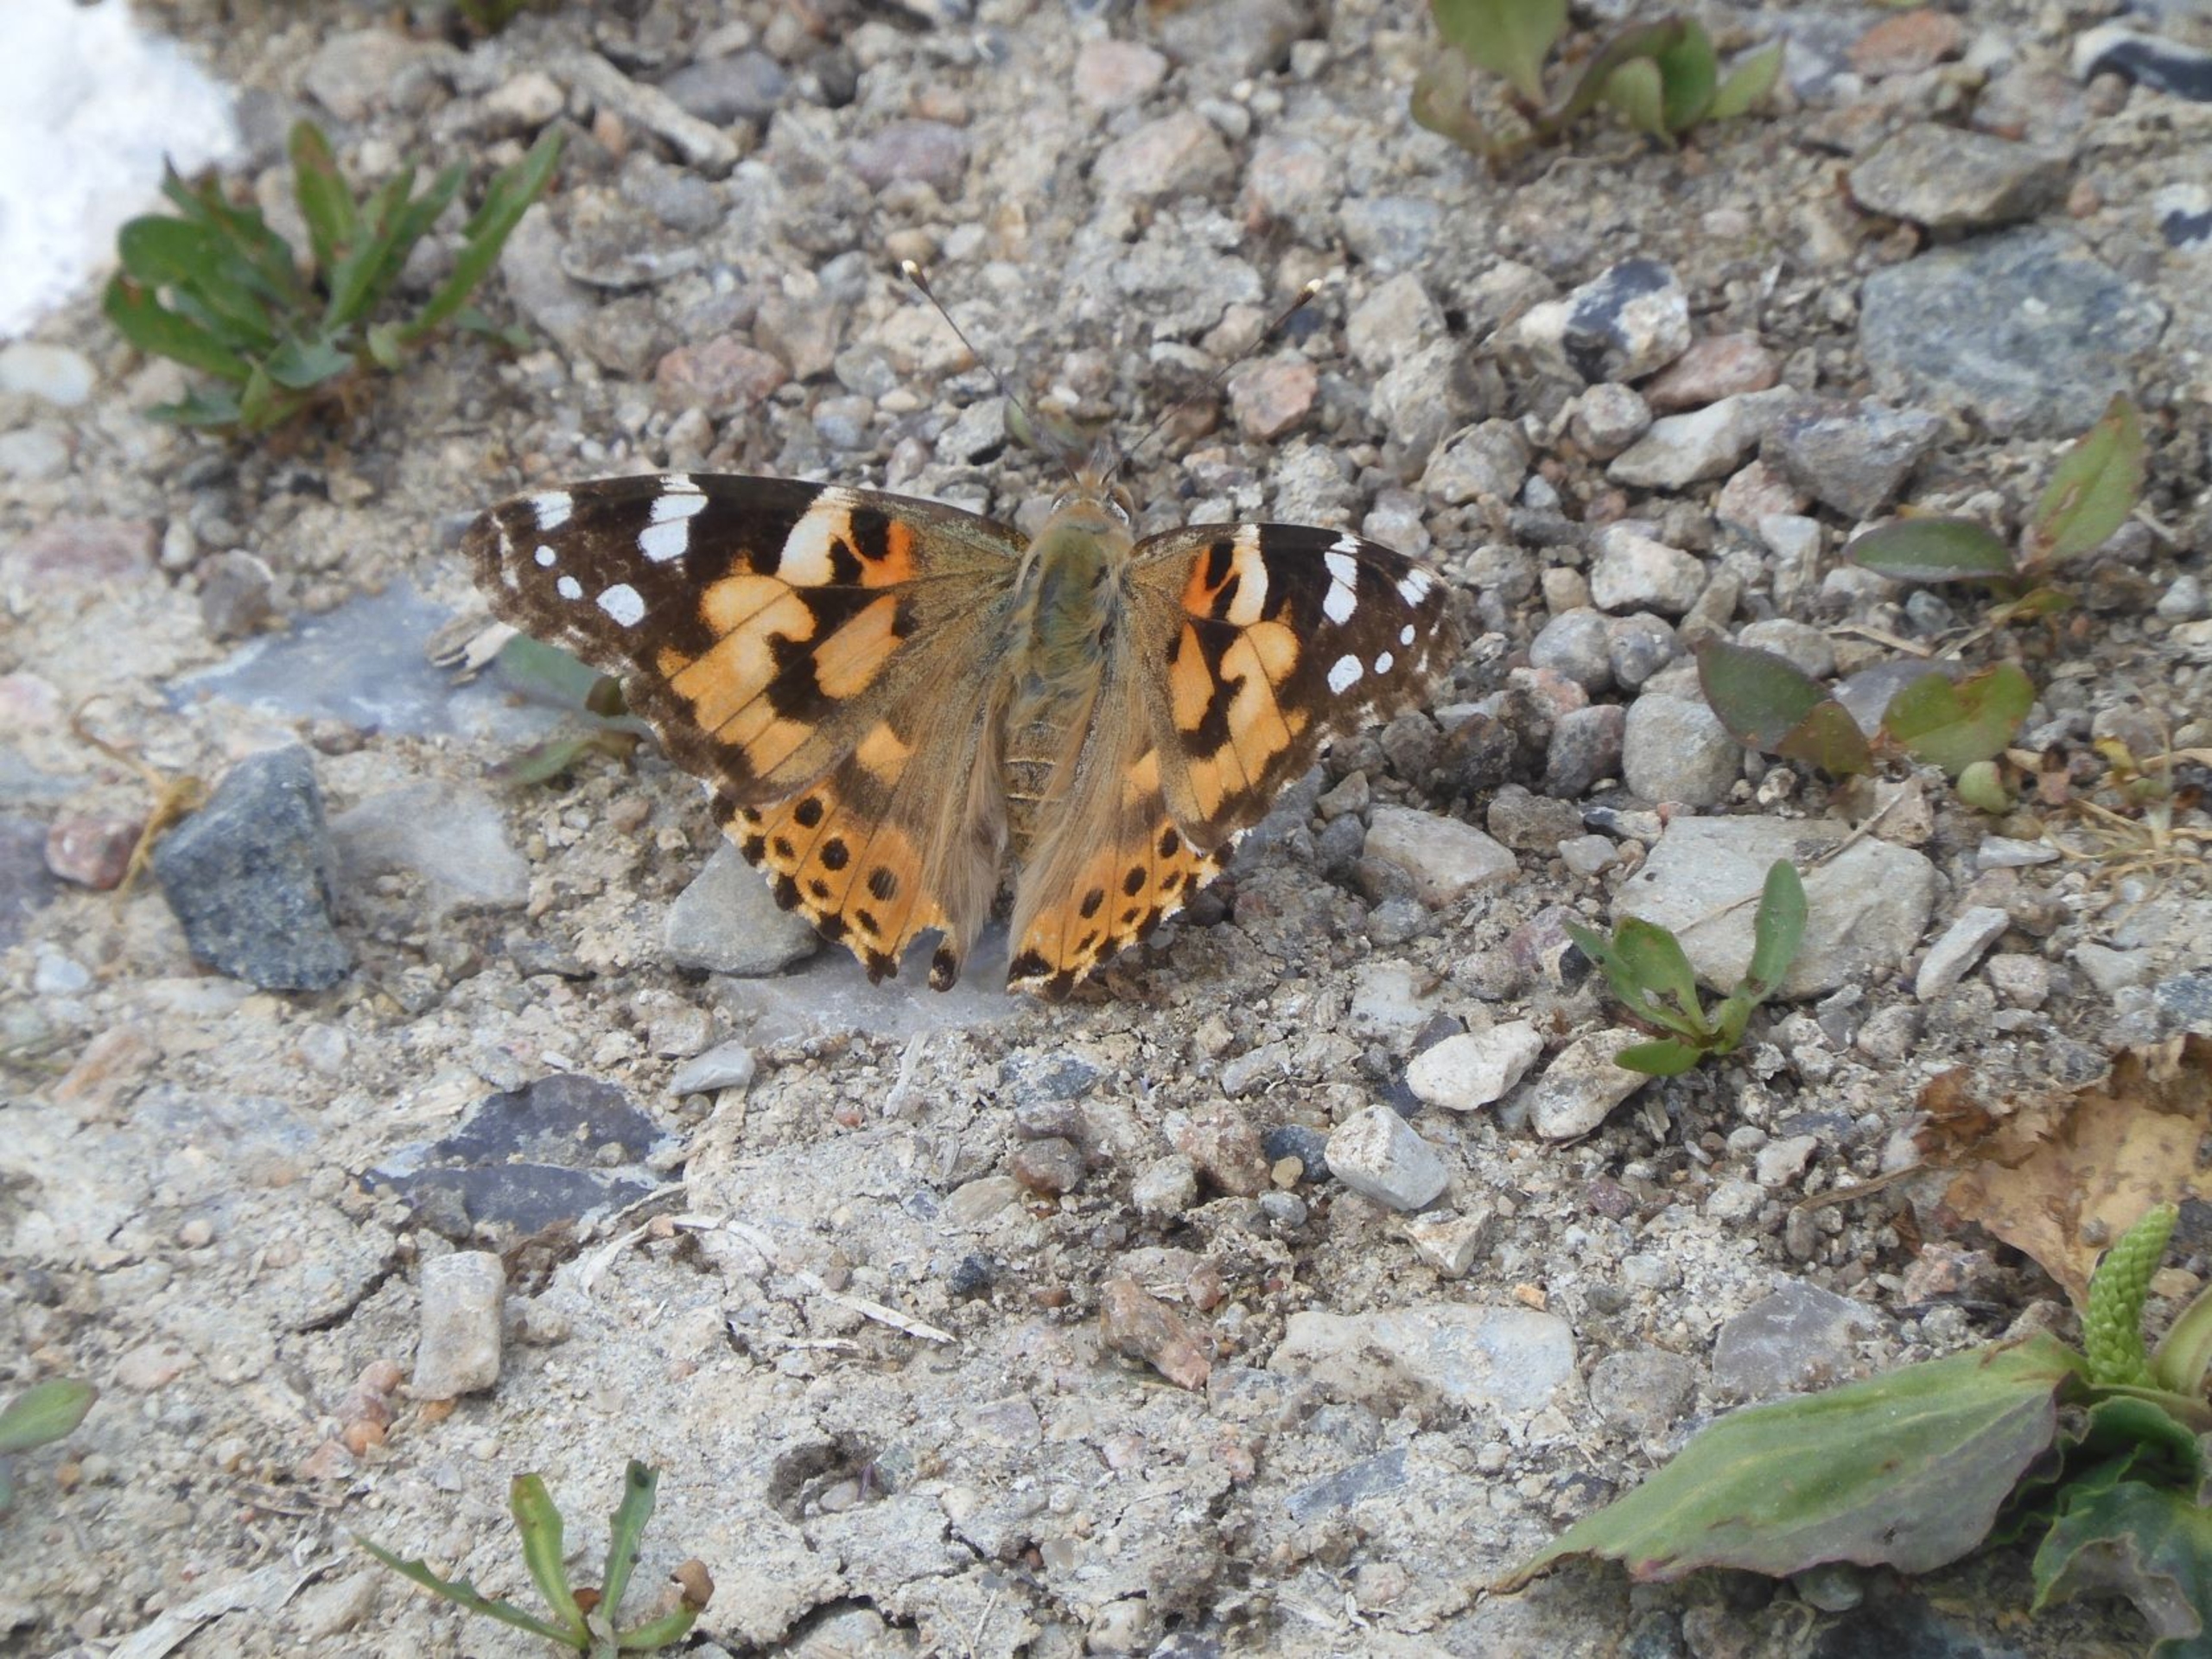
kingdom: Animalia
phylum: Arthropoda
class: Insecta
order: Lepidoptera
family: Nymphalidae
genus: Vanessa
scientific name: Vanessa cardui
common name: Tidselsommerfugl
